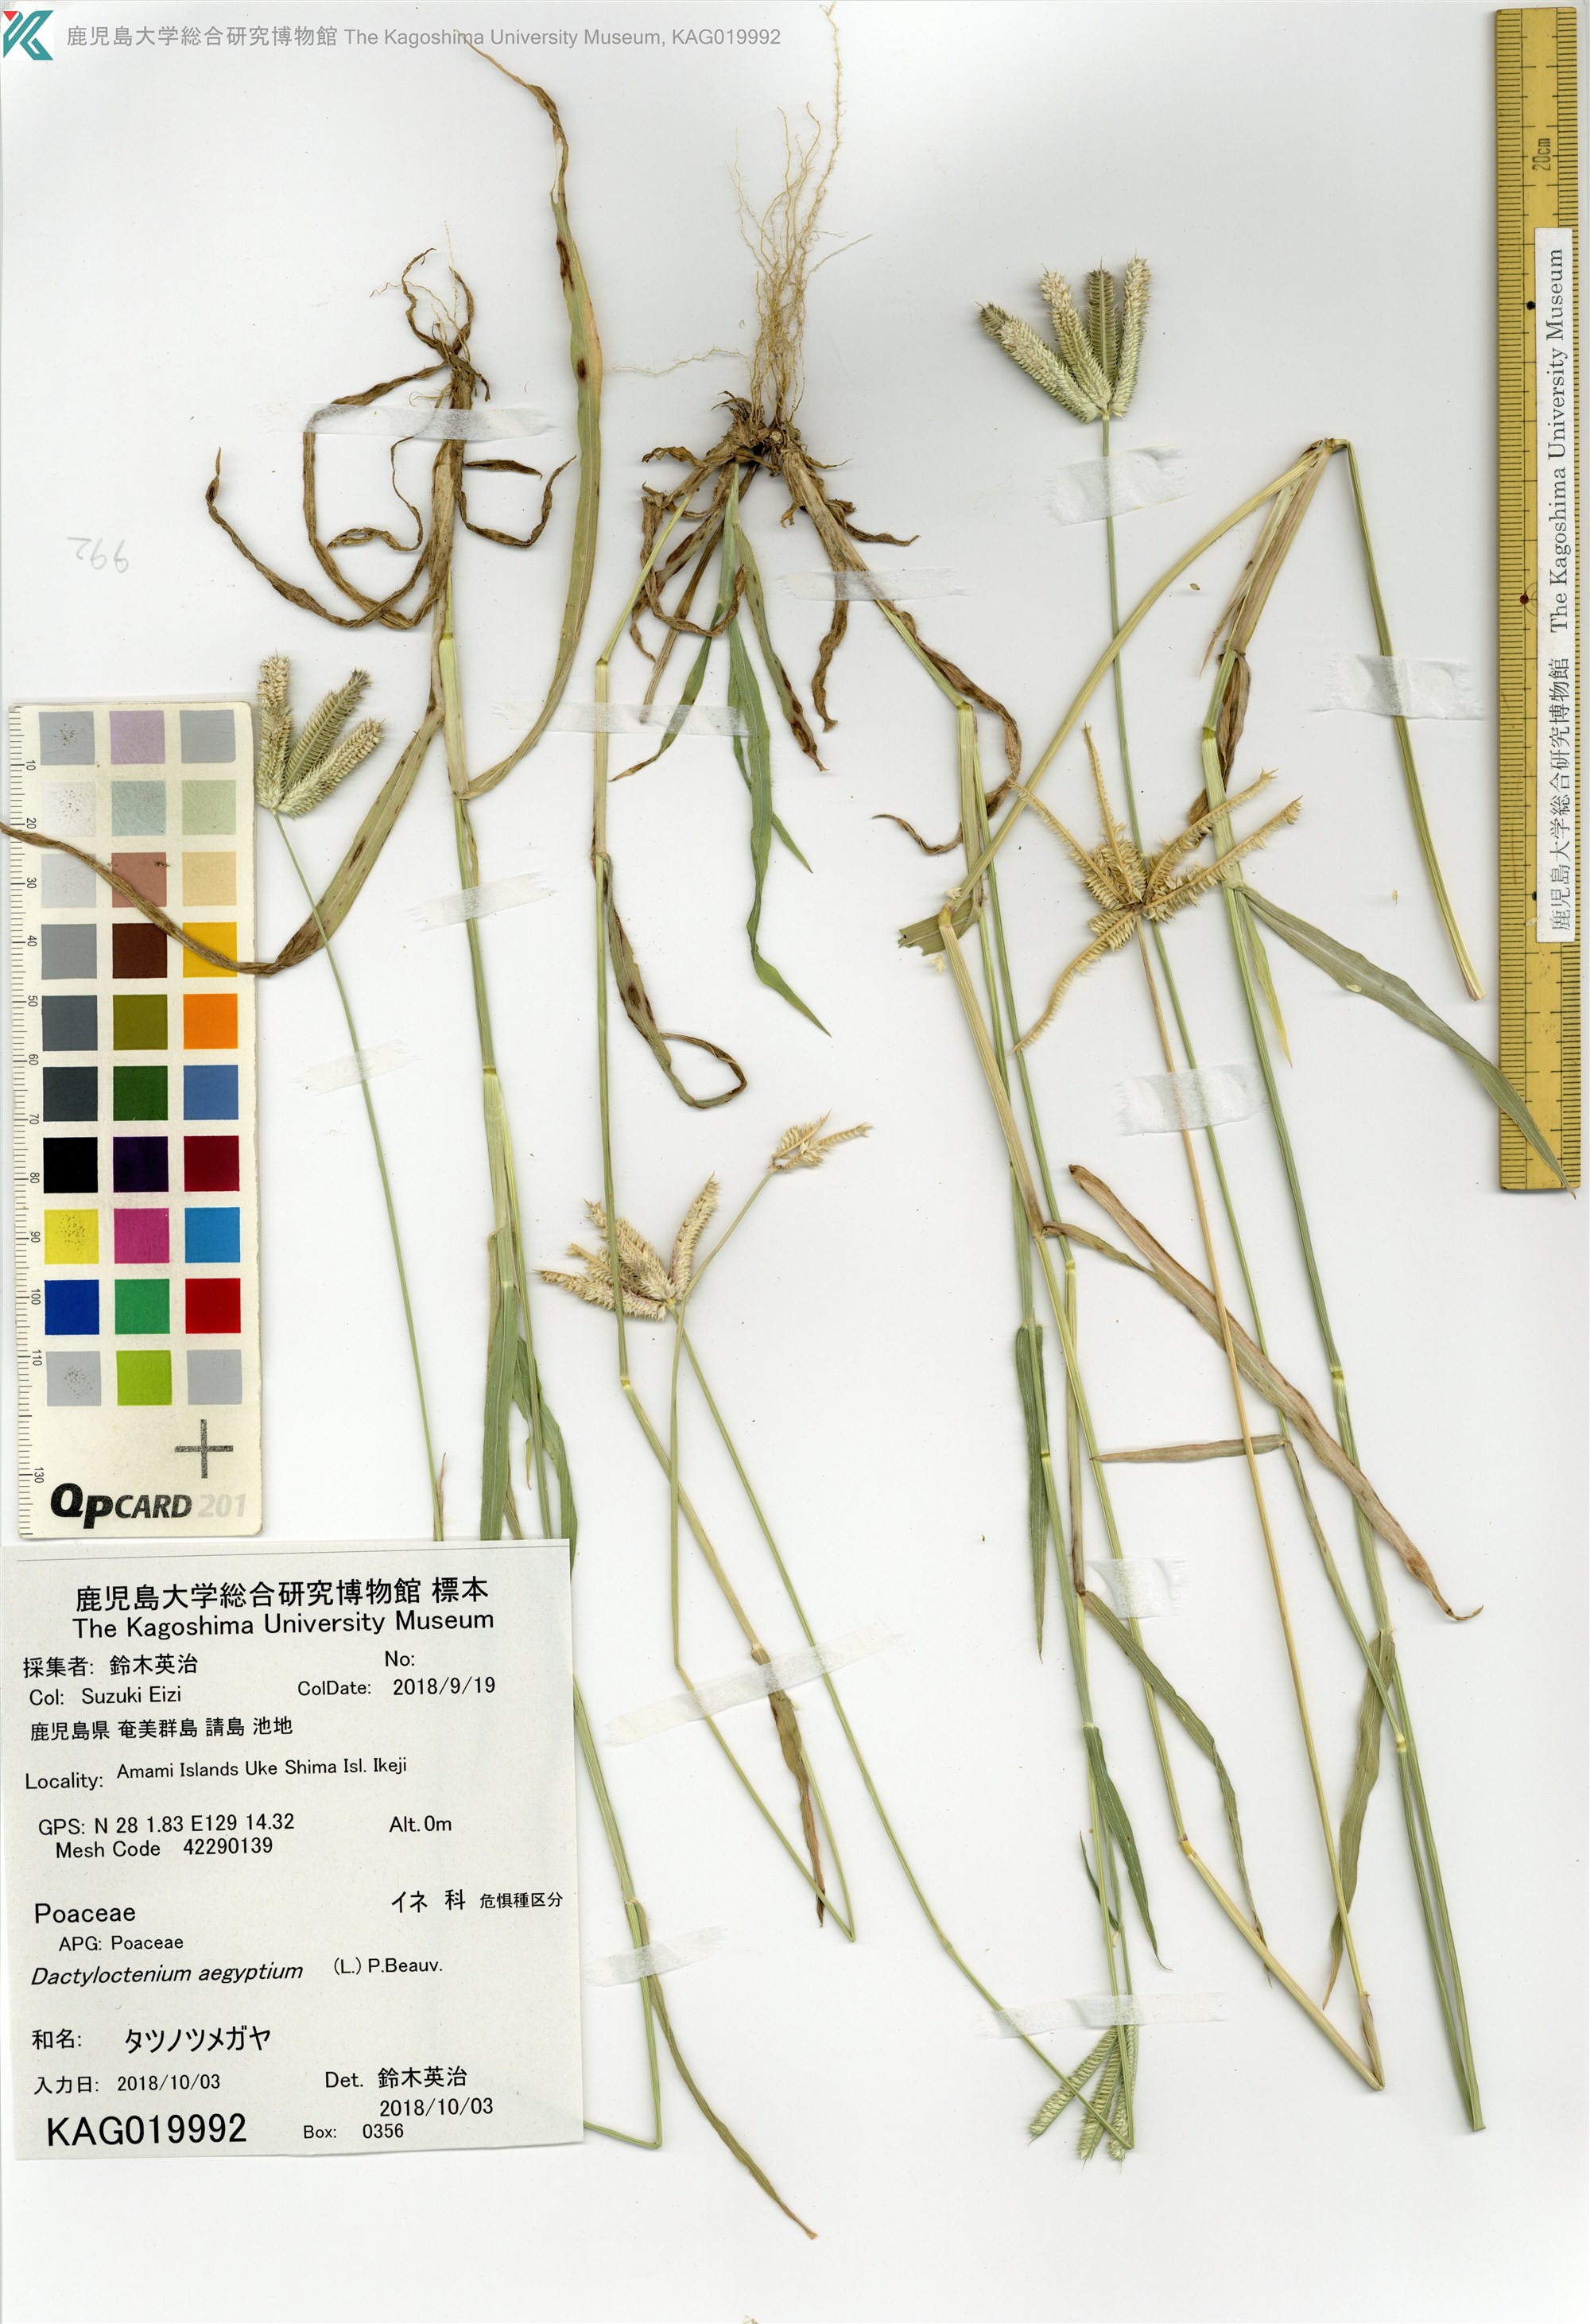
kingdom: Plantae
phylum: Tracheophyta
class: Liliopsida
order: Poales
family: Poaceae
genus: Dactyloctenium
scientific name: Dactyloctenium aegyptium
